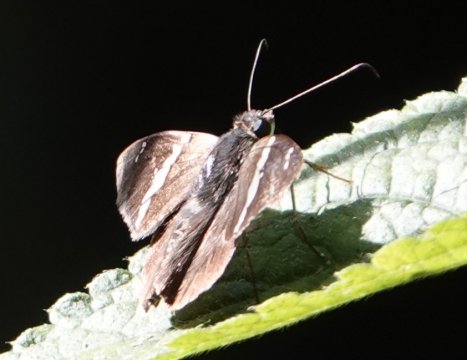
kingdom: Animalia
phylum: Arthropoda
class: Insecta
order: Lepidoptera
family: Hesperiidae
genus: Urbanus
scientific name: Urbanus tanna
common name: Tanna Longtail
